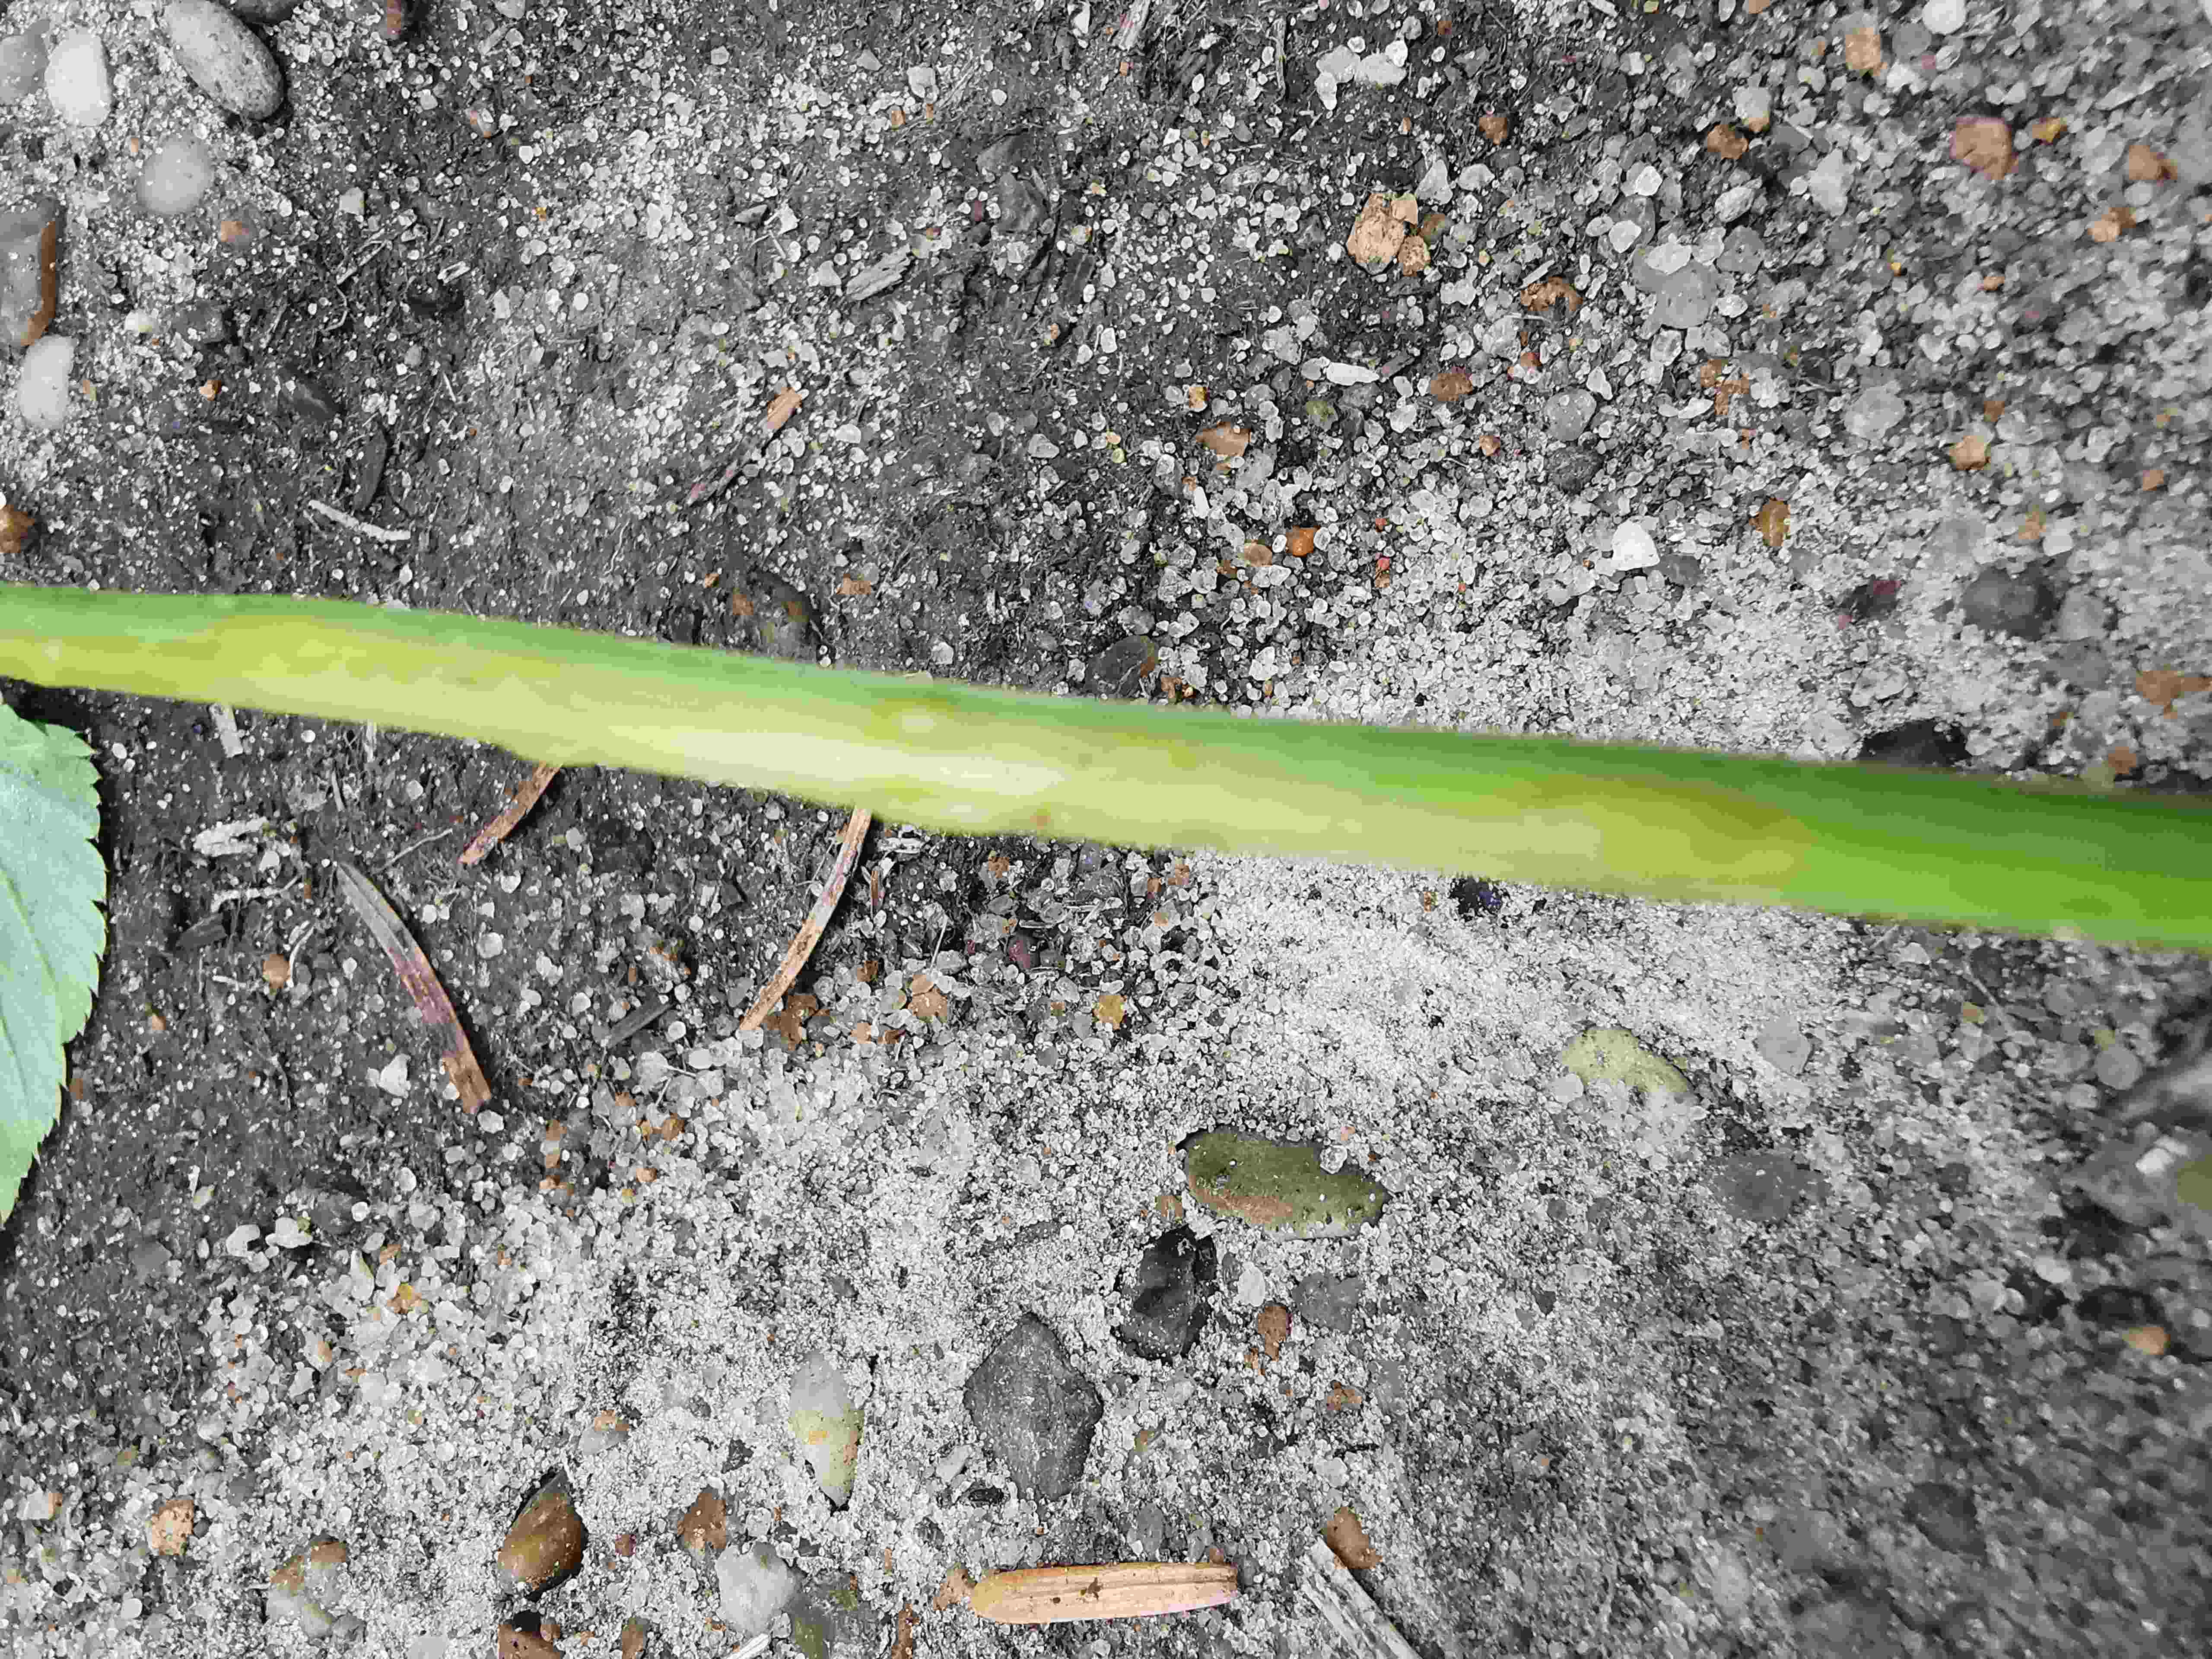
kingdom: Fungi
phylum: Ascomycota
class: Taphrinomycetes
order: Taphrinales
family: Taphrinaceae
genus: Protomyces
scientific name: Protomyces macrosporus
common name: skvalderkål-vablesæk
